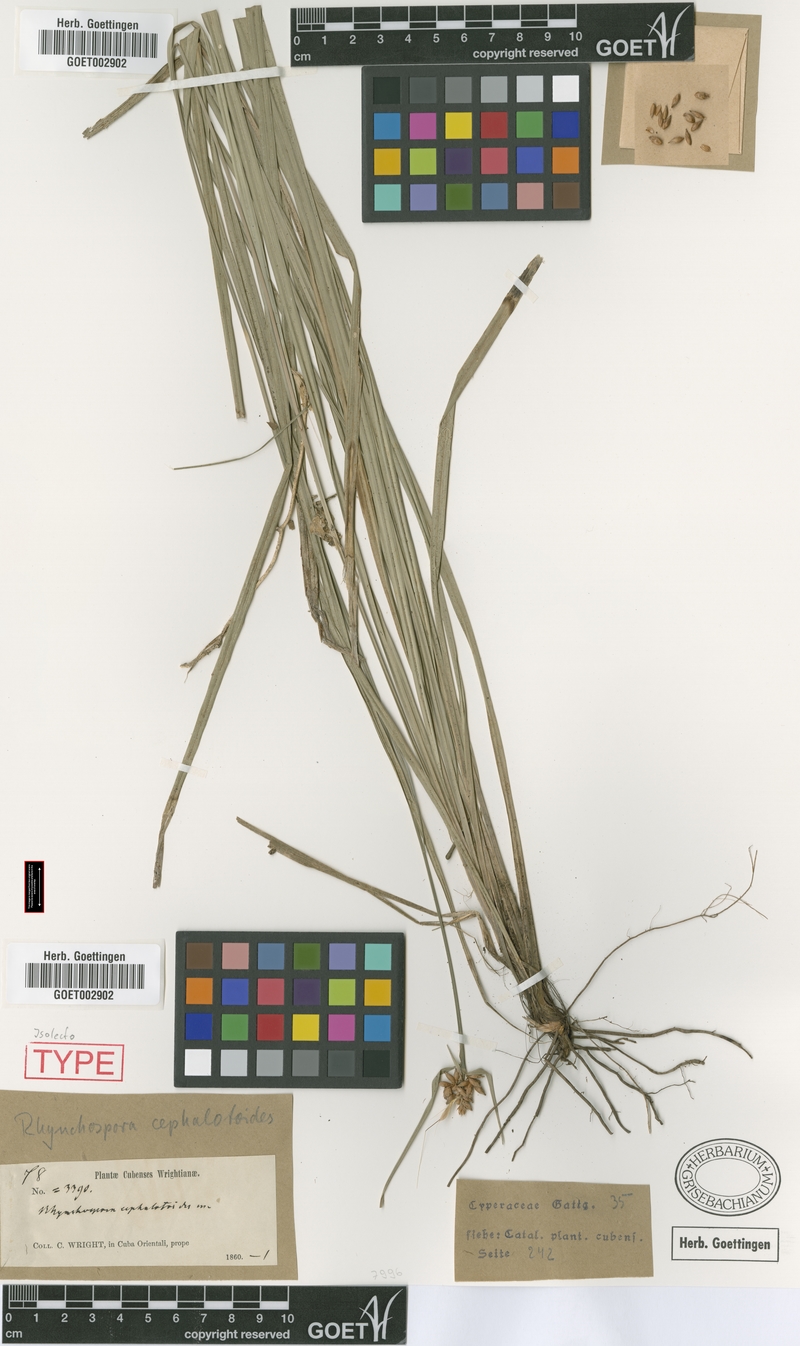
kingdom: Plantae
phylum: Tracheophyta
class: Liliopsida
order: Poales
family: Cyperaceae
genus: Rhynchospora
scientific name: Rhynchospora cephalotoides
